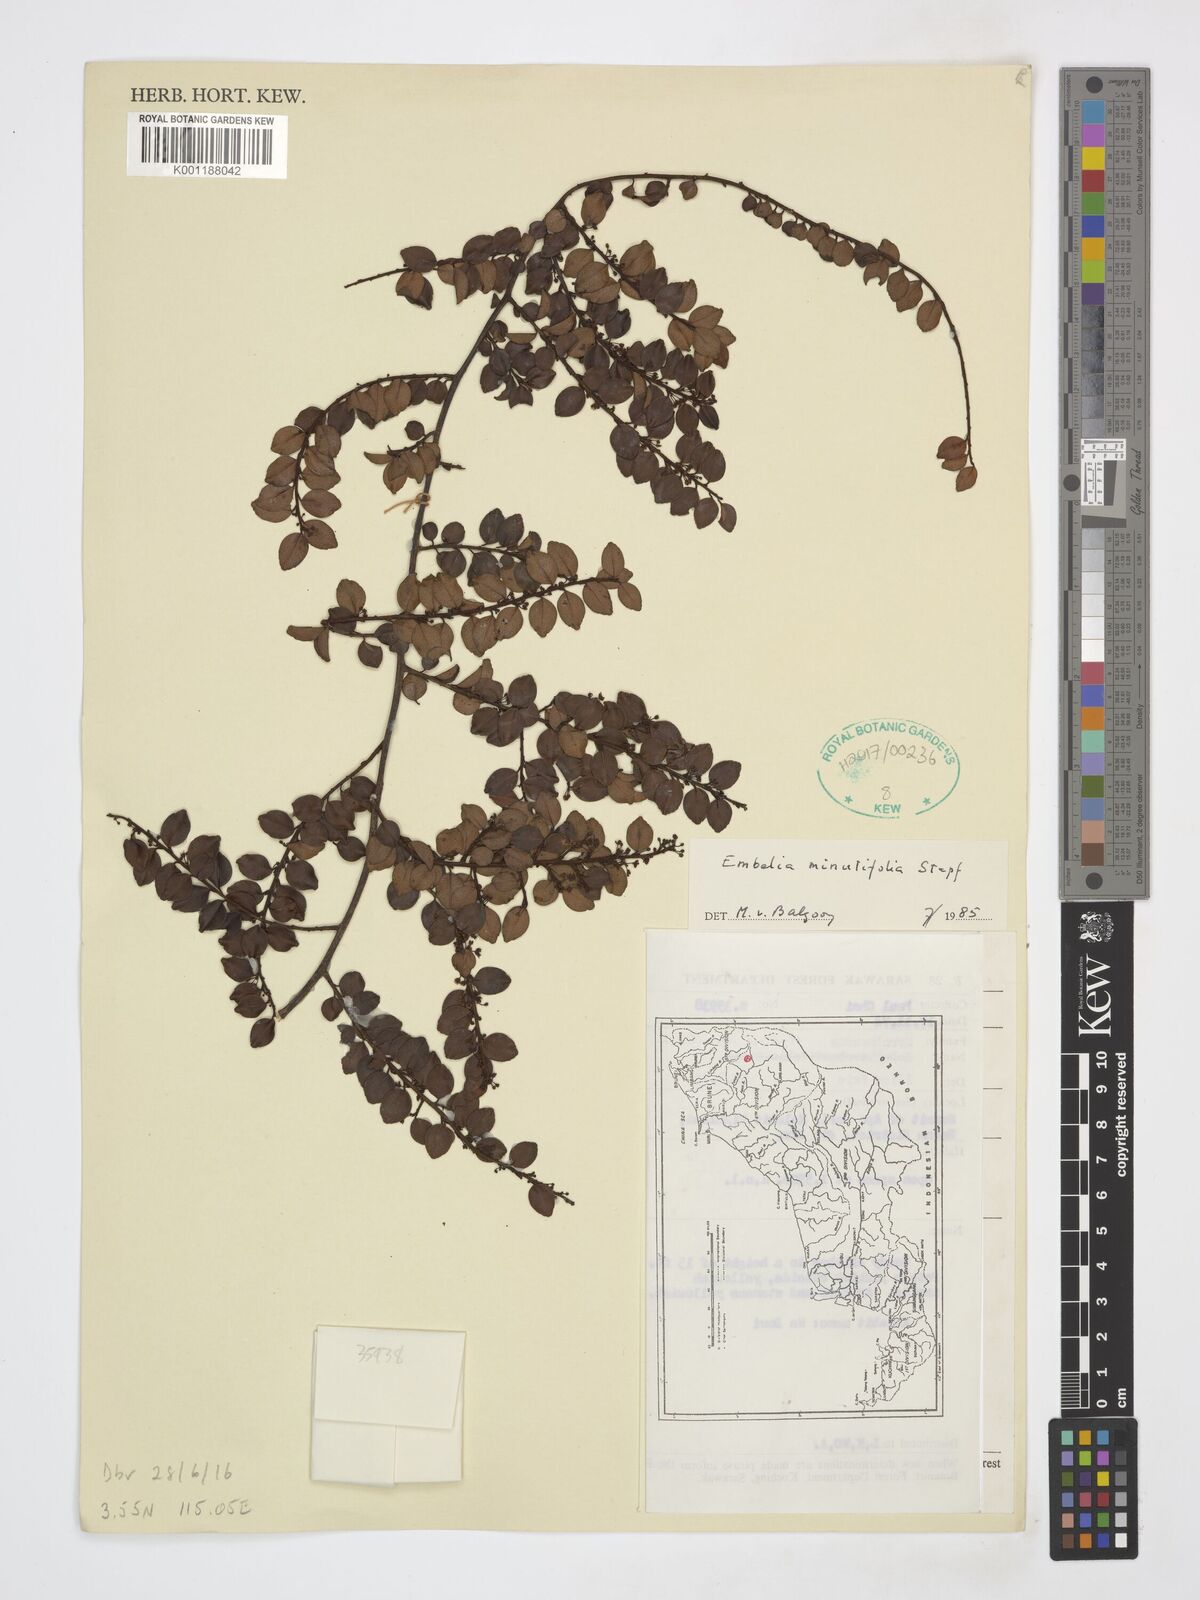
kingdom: Plantae
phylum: Tracheophyta
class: Magnoliopsida
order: Ericales
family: Primulaceae
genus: Embelia
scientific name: Embelia minutifolia
